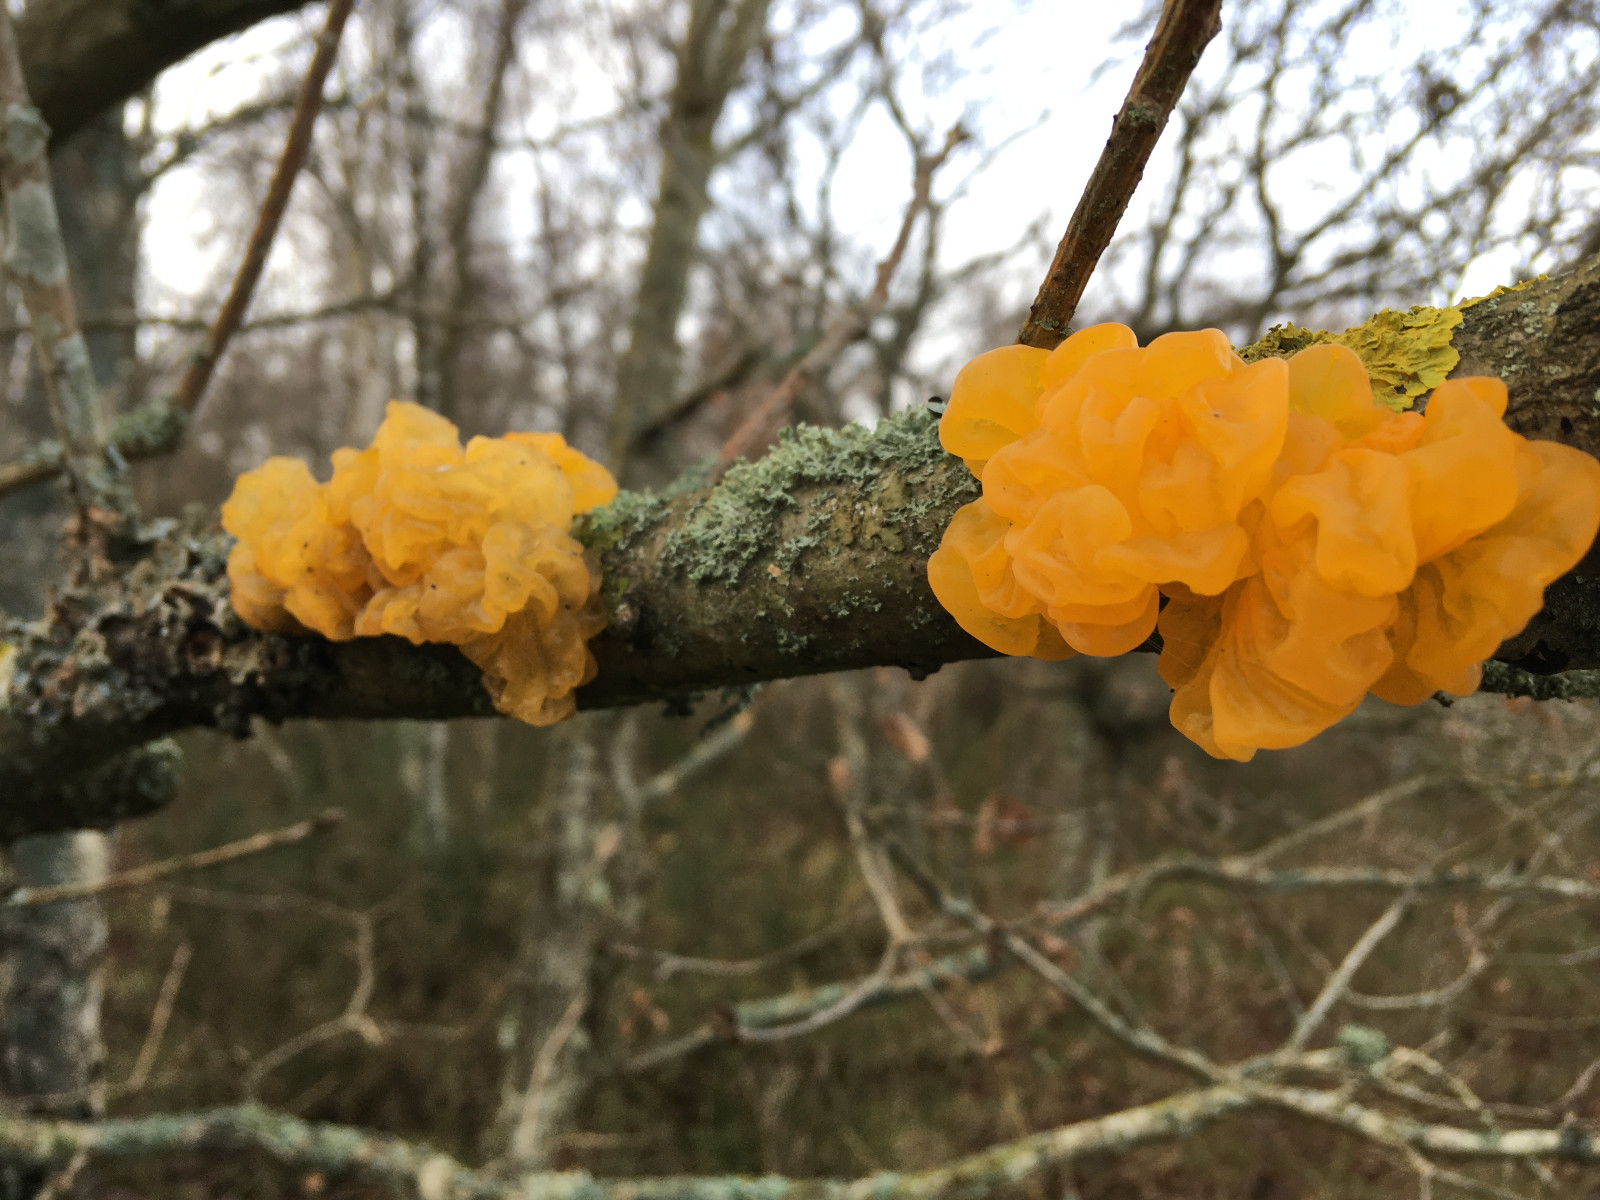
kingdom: Fungi
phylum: Basidiomycota
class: Tremellomycetes
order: Tremellales
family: Tremellaceae
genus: Tremella
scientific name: Tremella mesenterica
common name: gul bævresvamp
